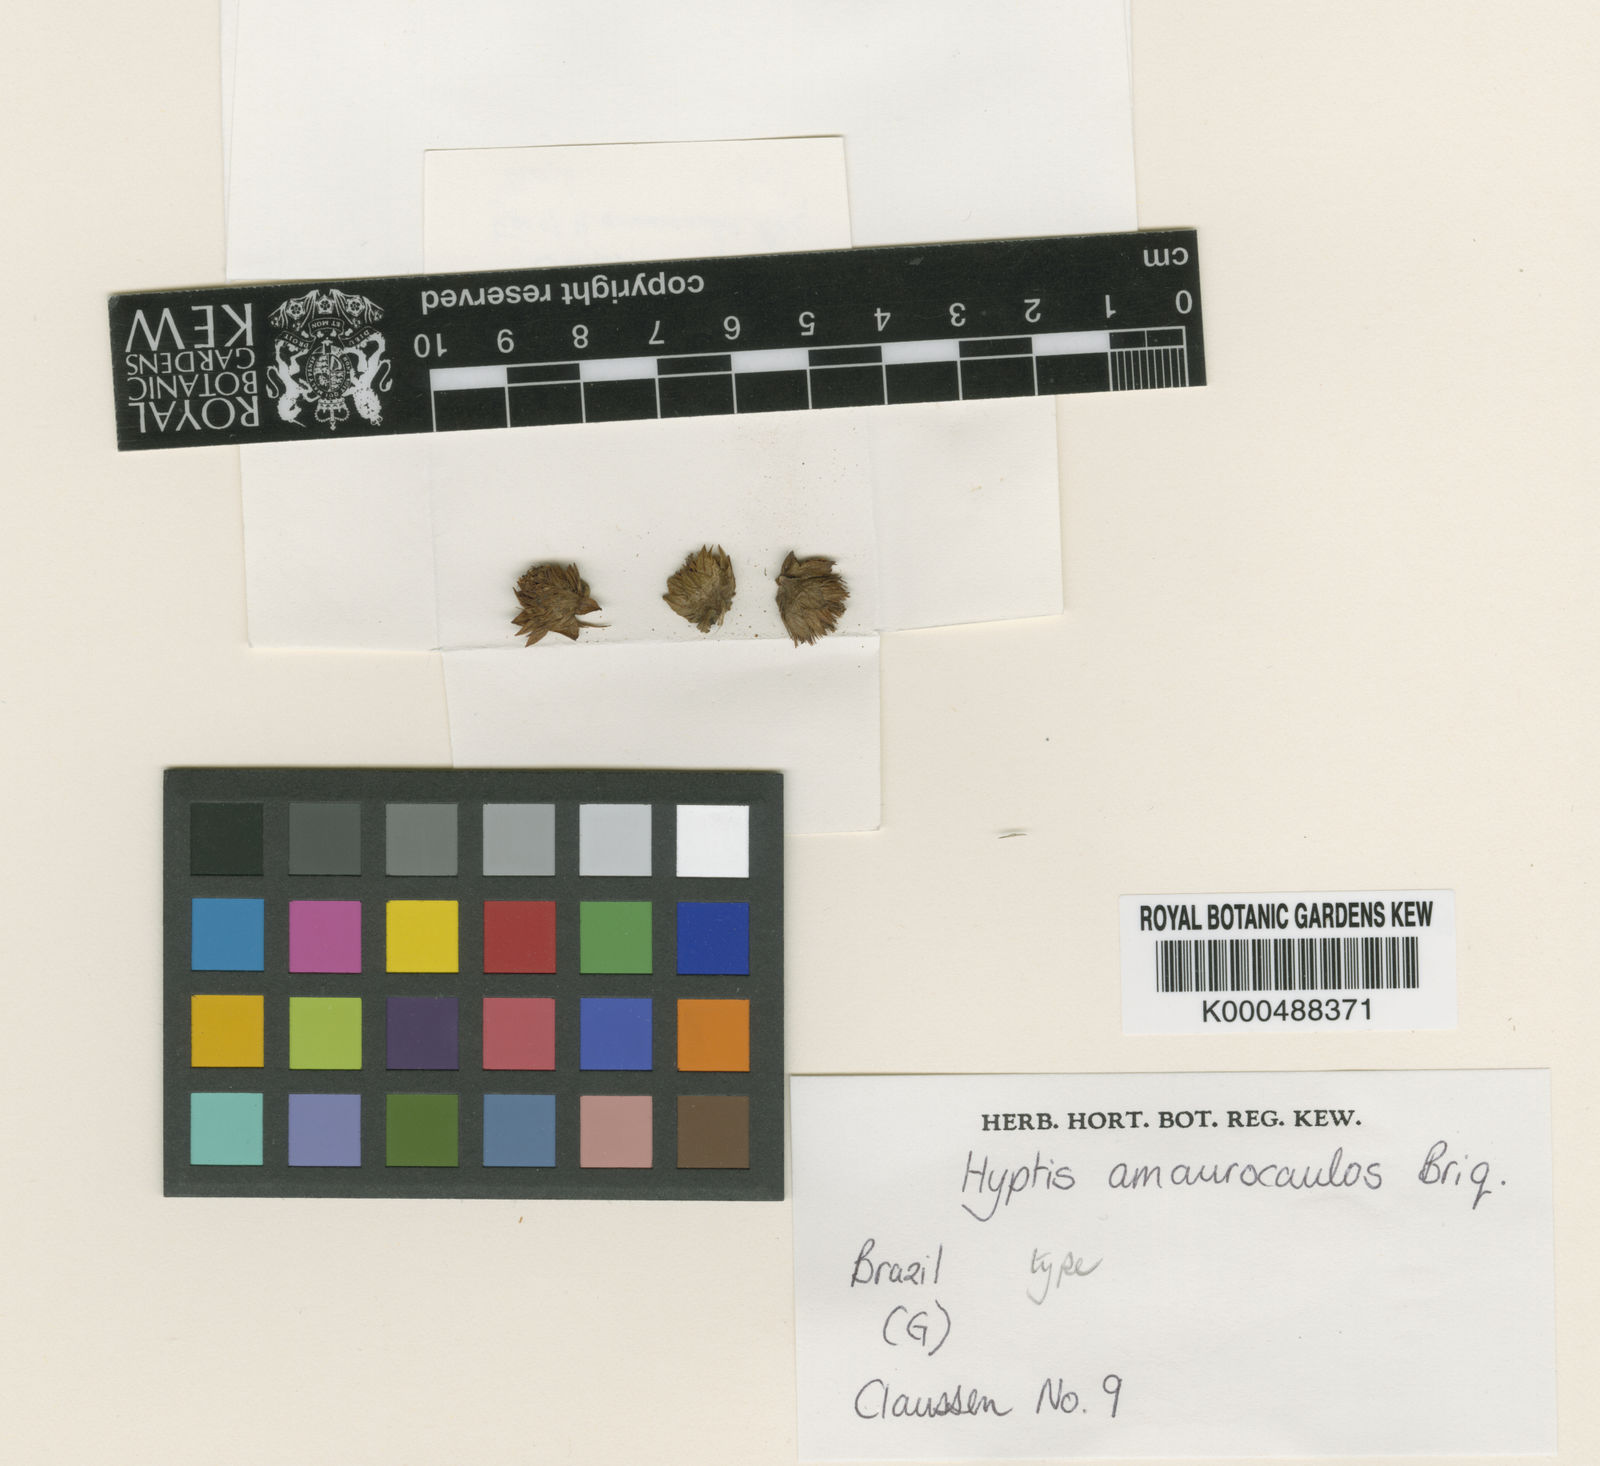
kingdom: Plantae
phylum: Tracheophyta
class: Magnoliopsida
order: Lamiales
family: Lamiaceae
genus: Hyptis
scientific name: Hyptis amaurocaulis
